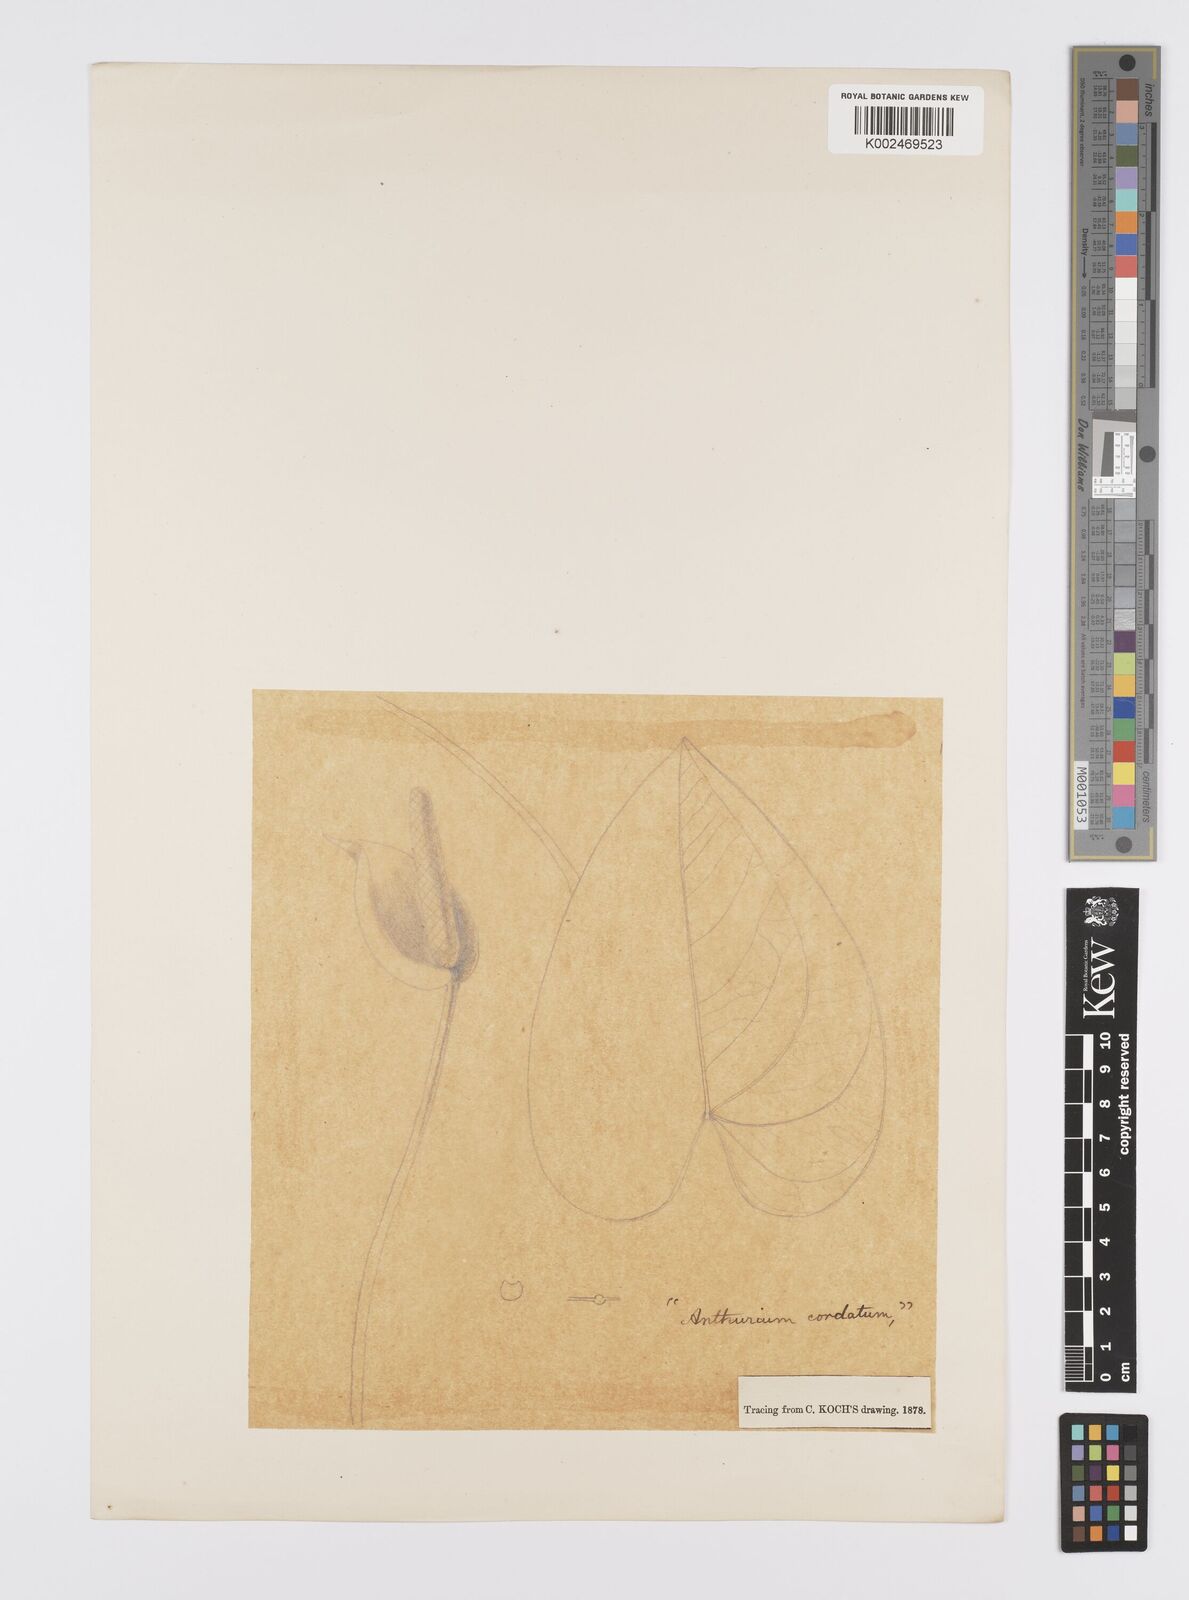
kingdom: Plantae
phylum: Tracheophyta
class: Liliopsida
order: Alismatales
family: Araceae
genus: Anthurium
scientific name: Anthurium augustinum
